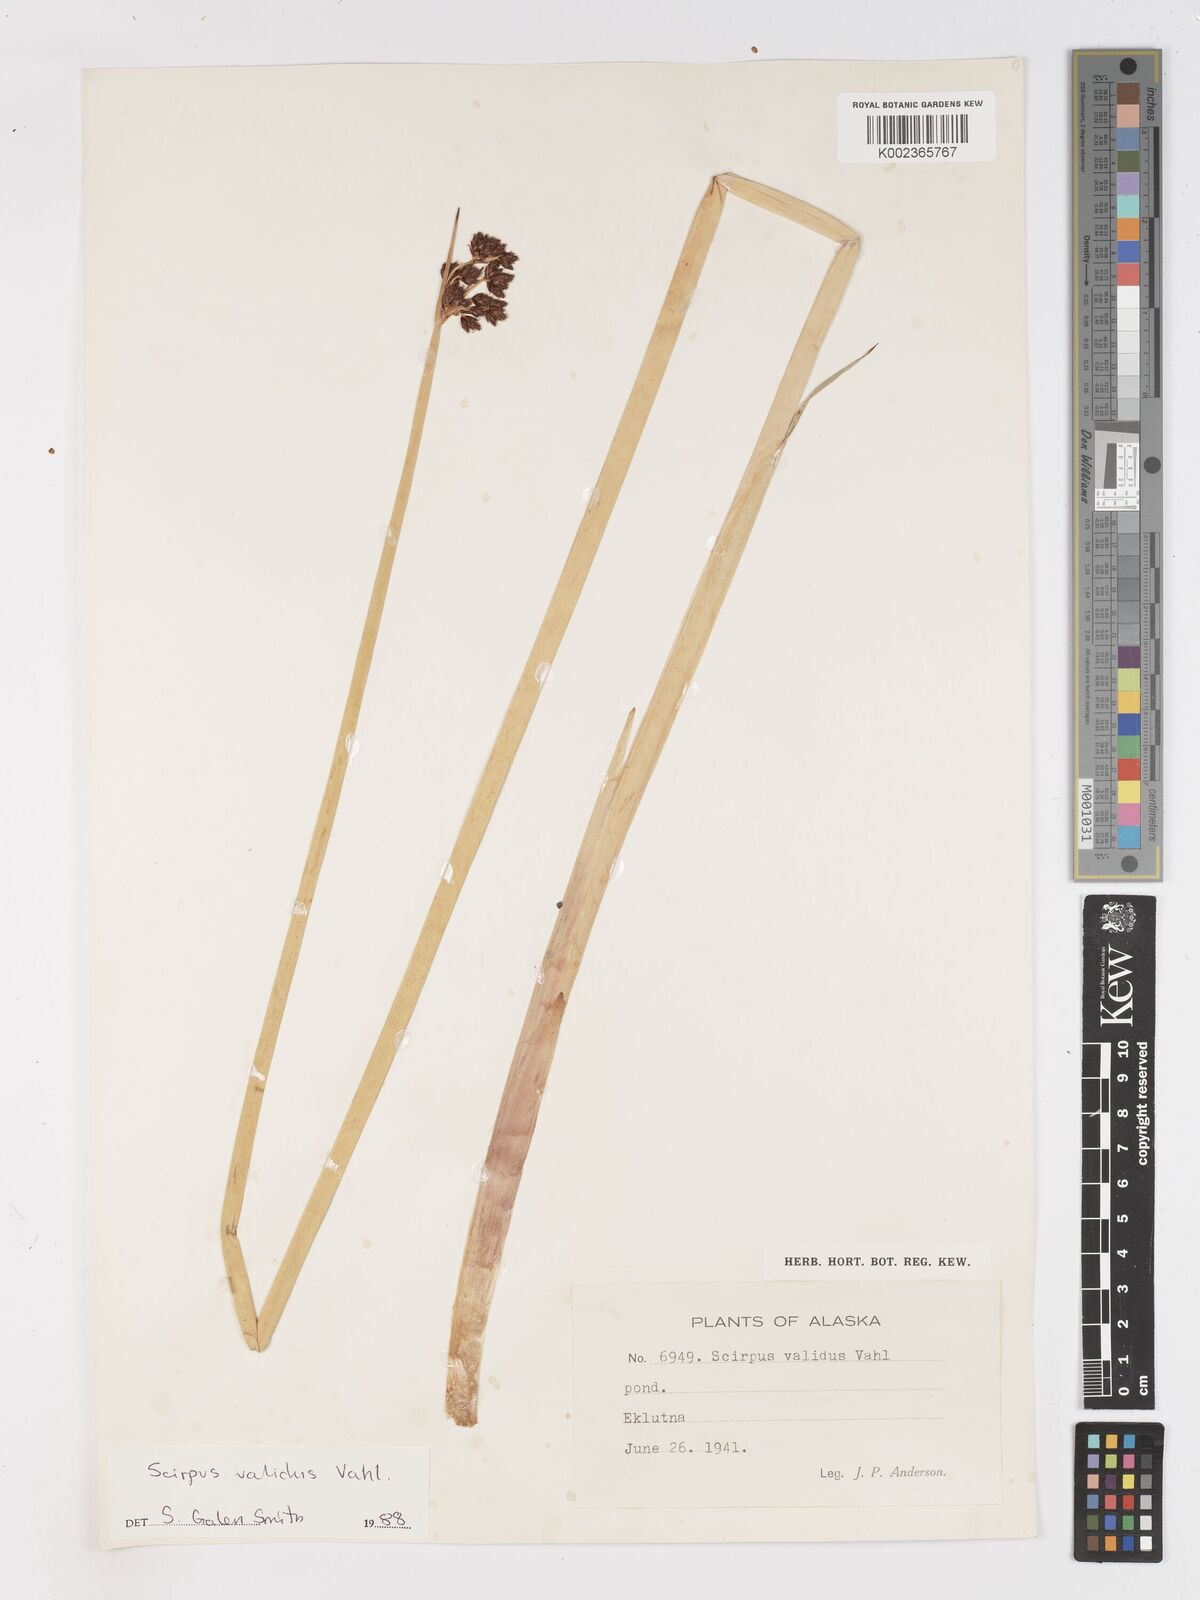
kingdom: Plantae
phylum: Tracheophyta
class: Liliopsida
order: Poales
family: Cyperaceae
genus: Schoenoplectus
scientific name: Schoenoplectus tabernaemontani
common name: Grey club-rush
